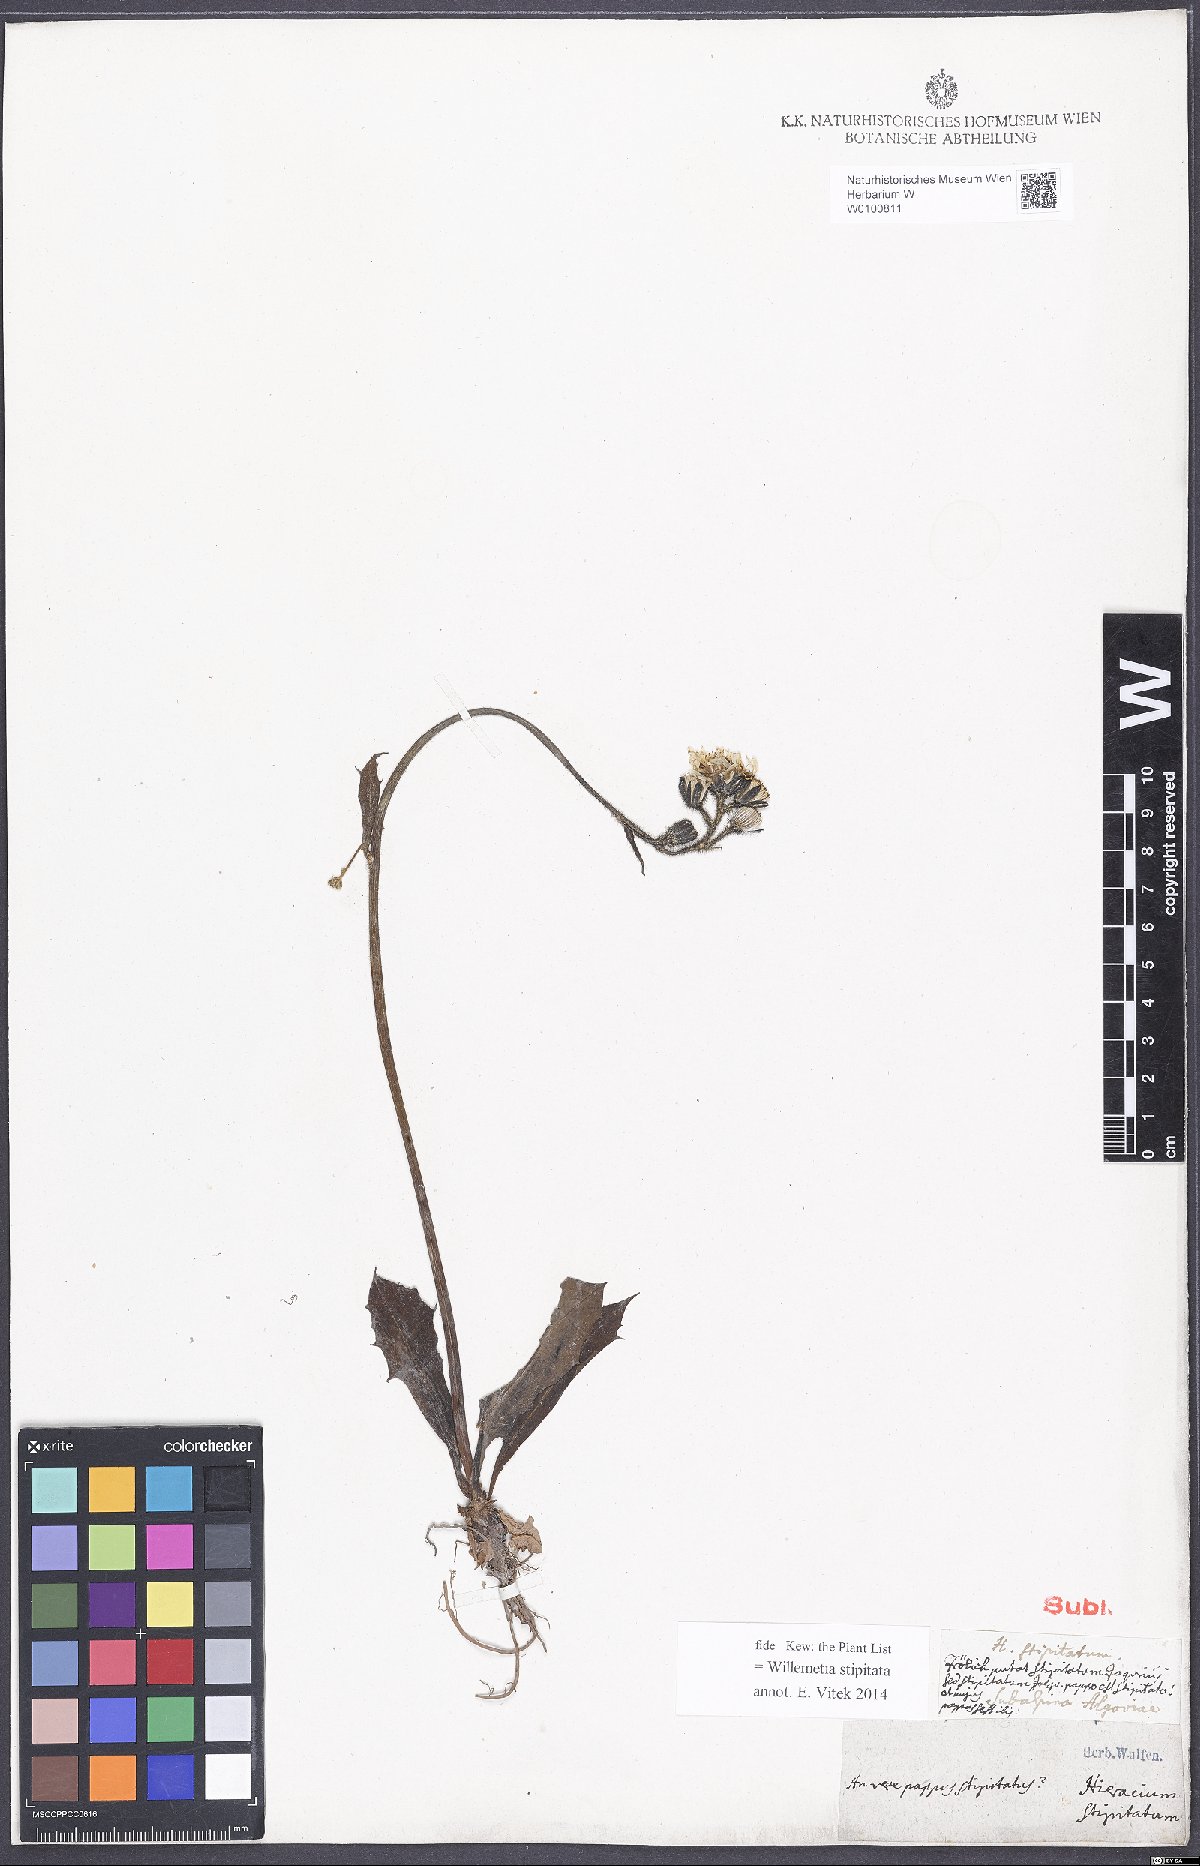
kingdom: Plantae
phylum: Tracheophyta
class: Magnoliopsida
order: Asterales
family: Asteraceae
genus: Willemetia
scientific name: Willemetia stipitata
